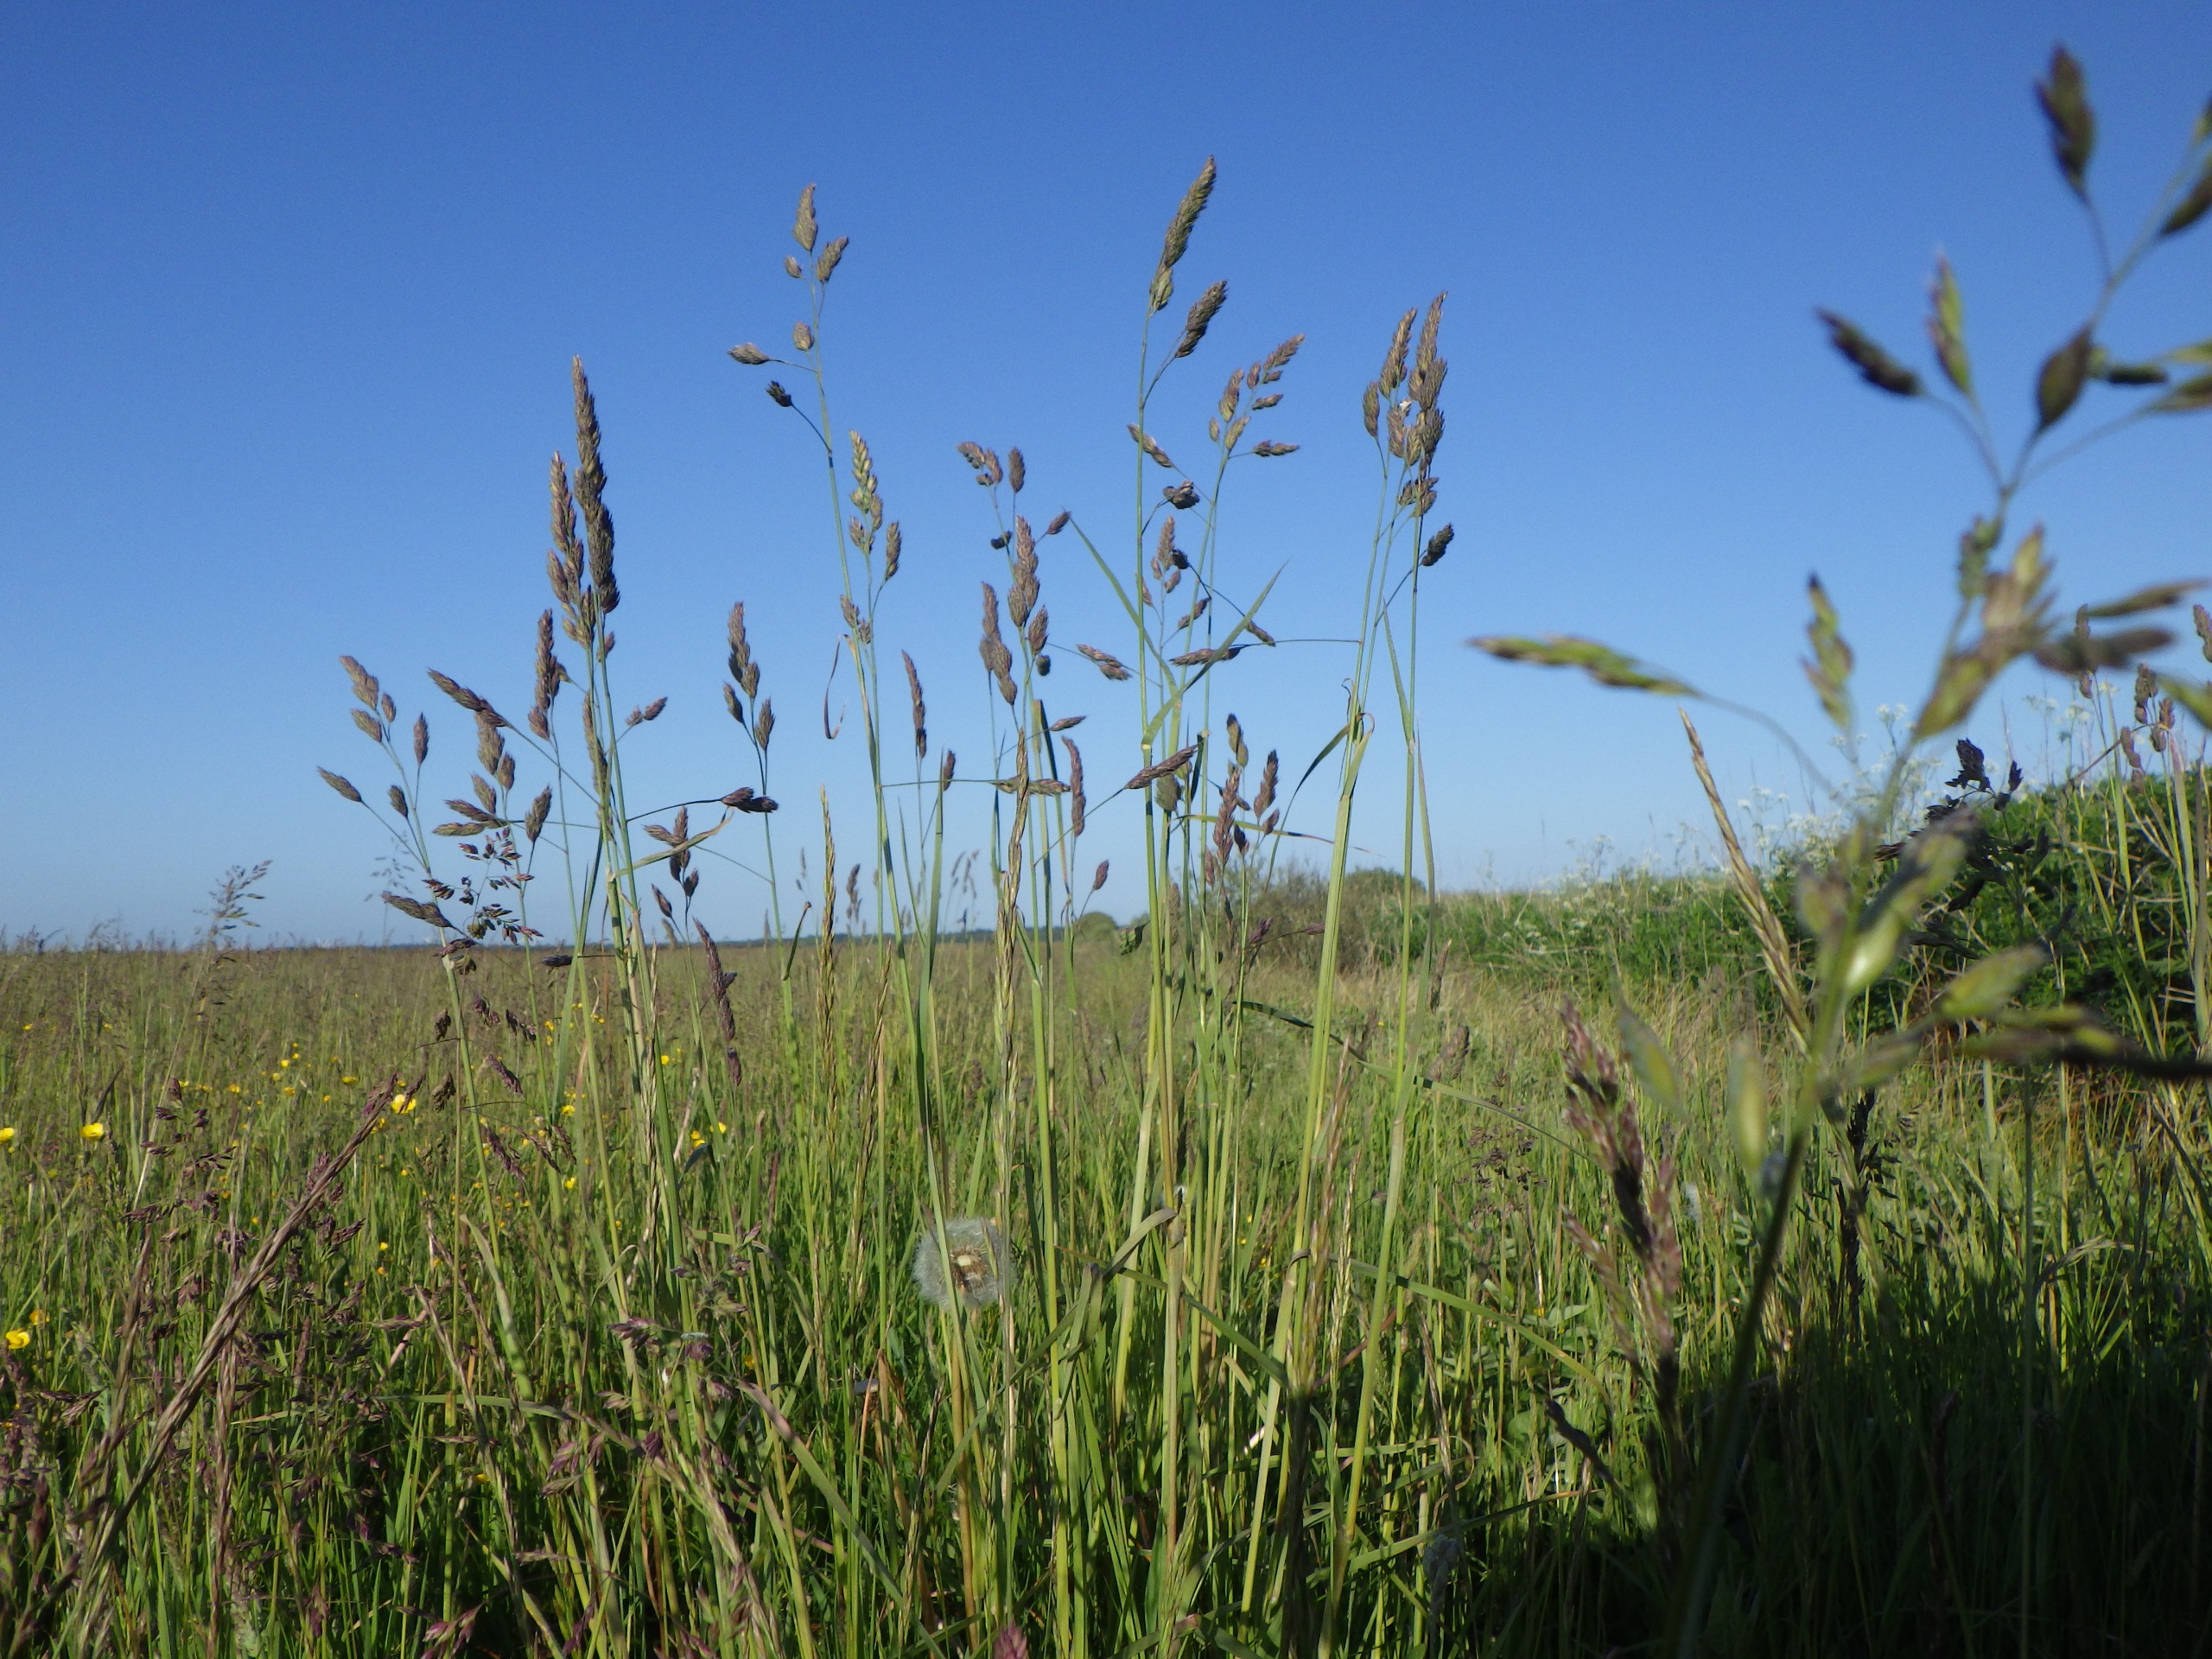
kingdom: Plantae
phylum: Tracheophyta
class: Liliopsida
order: Poales
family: Poaceae
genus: Dactylis
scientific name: Dactylis glomerata
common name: Almindelig hundegræs
